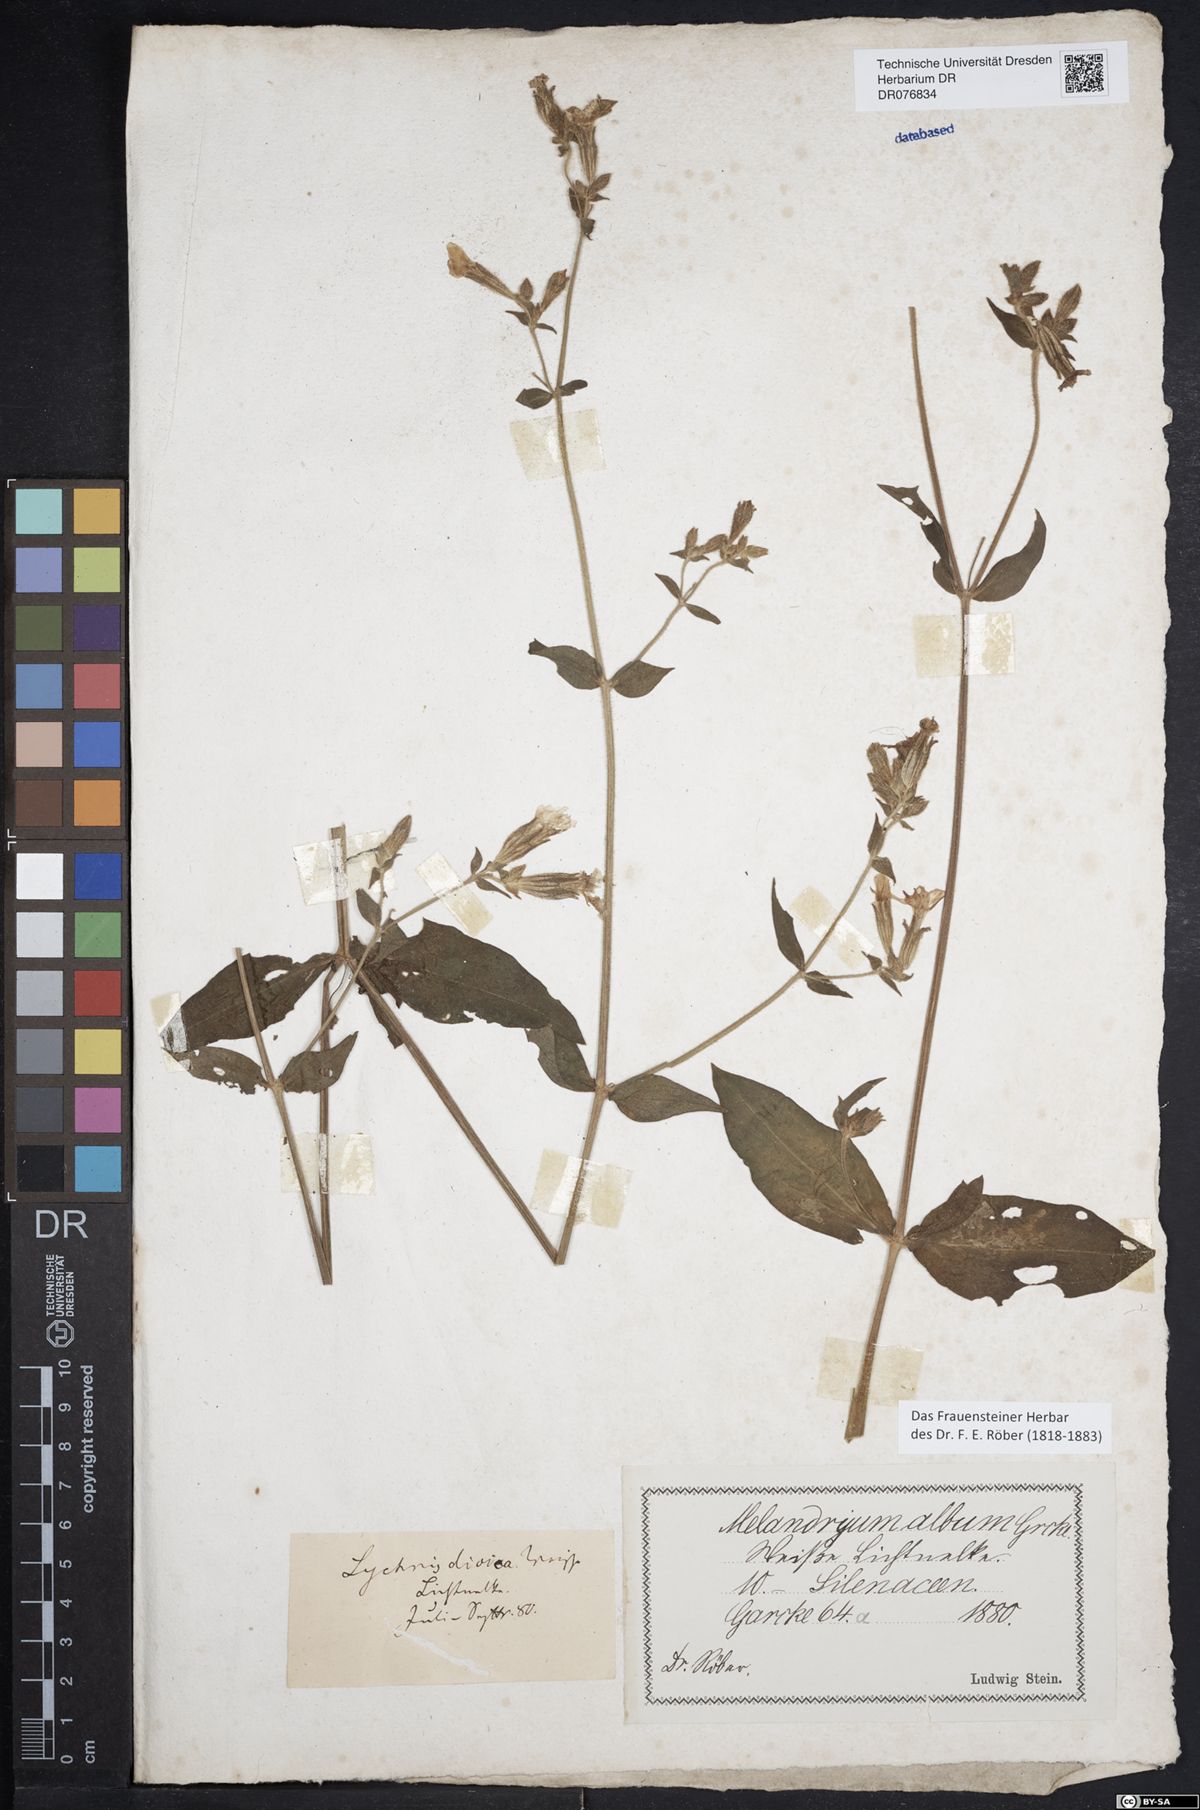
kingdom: Plantae
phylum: Tracheophyta
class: Magnoliopsida
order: Caryophyllales
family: Caryophyllaceae
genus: Silene
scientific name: Silene latifolia
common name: White campion
